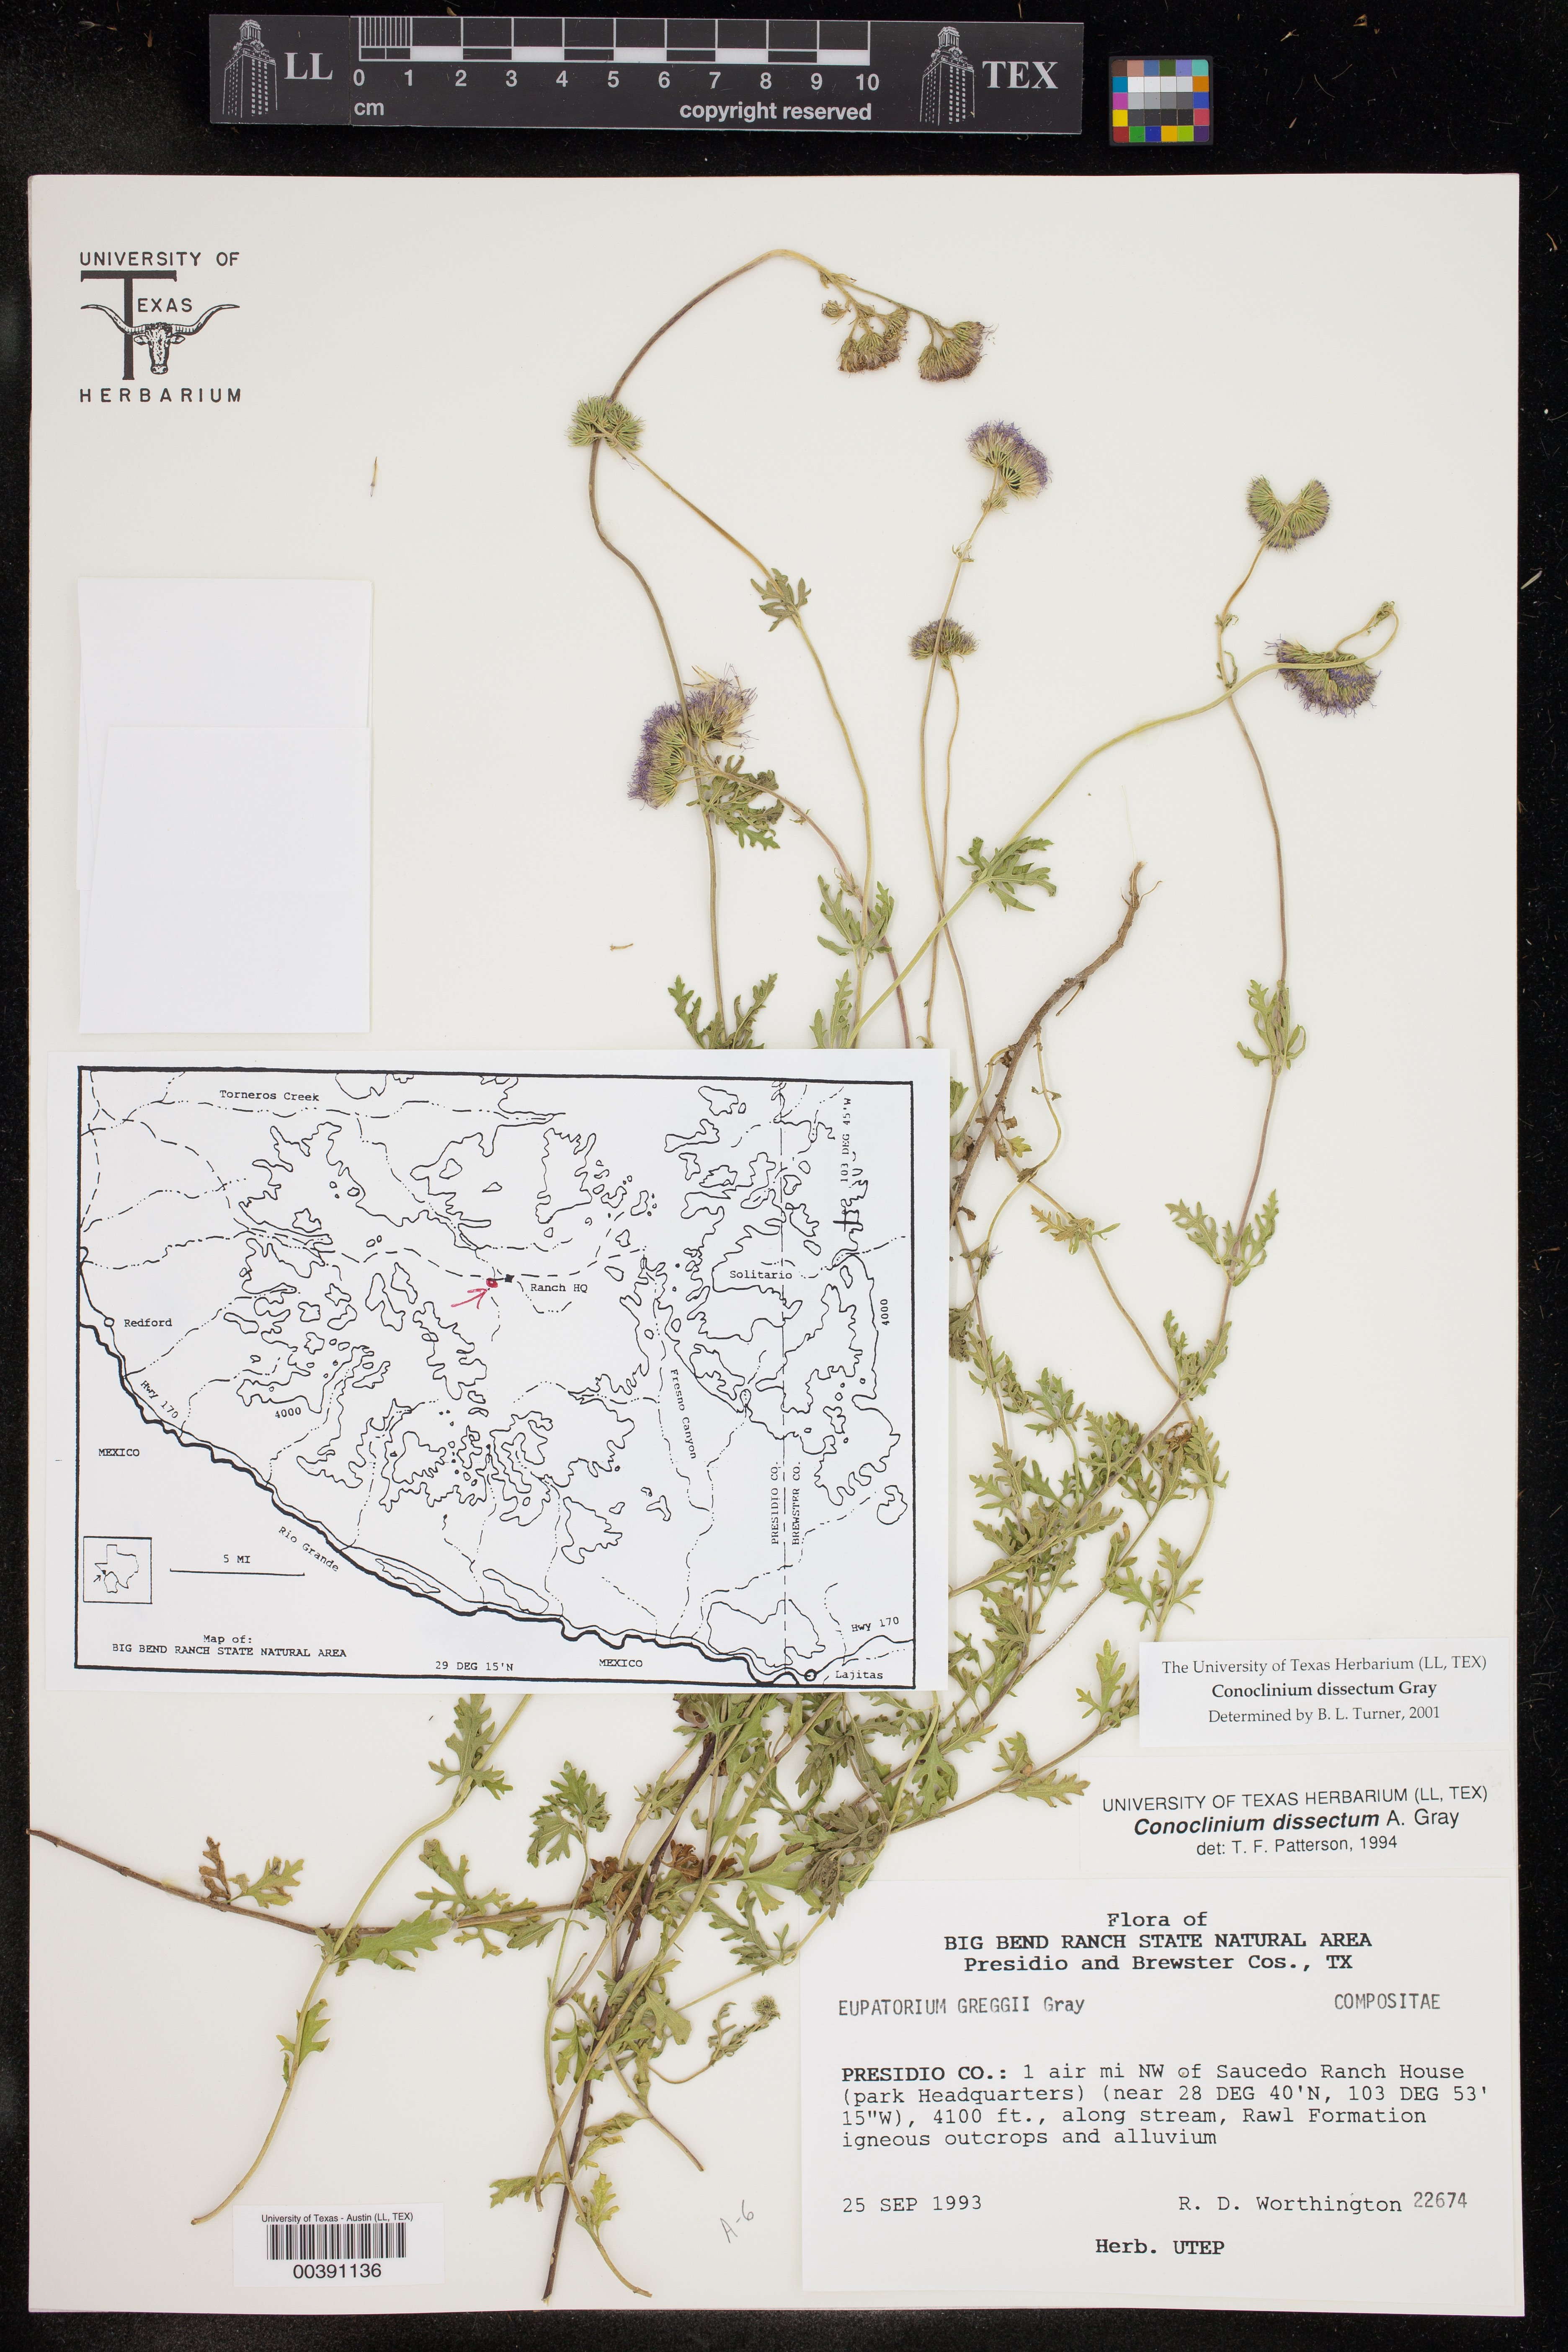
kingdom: Plantae
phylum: Tracheophyta
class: Magnoliopsida
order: Asterales
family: Asteraceae
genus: Conoclinium
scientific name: Conoclinium dissectum
